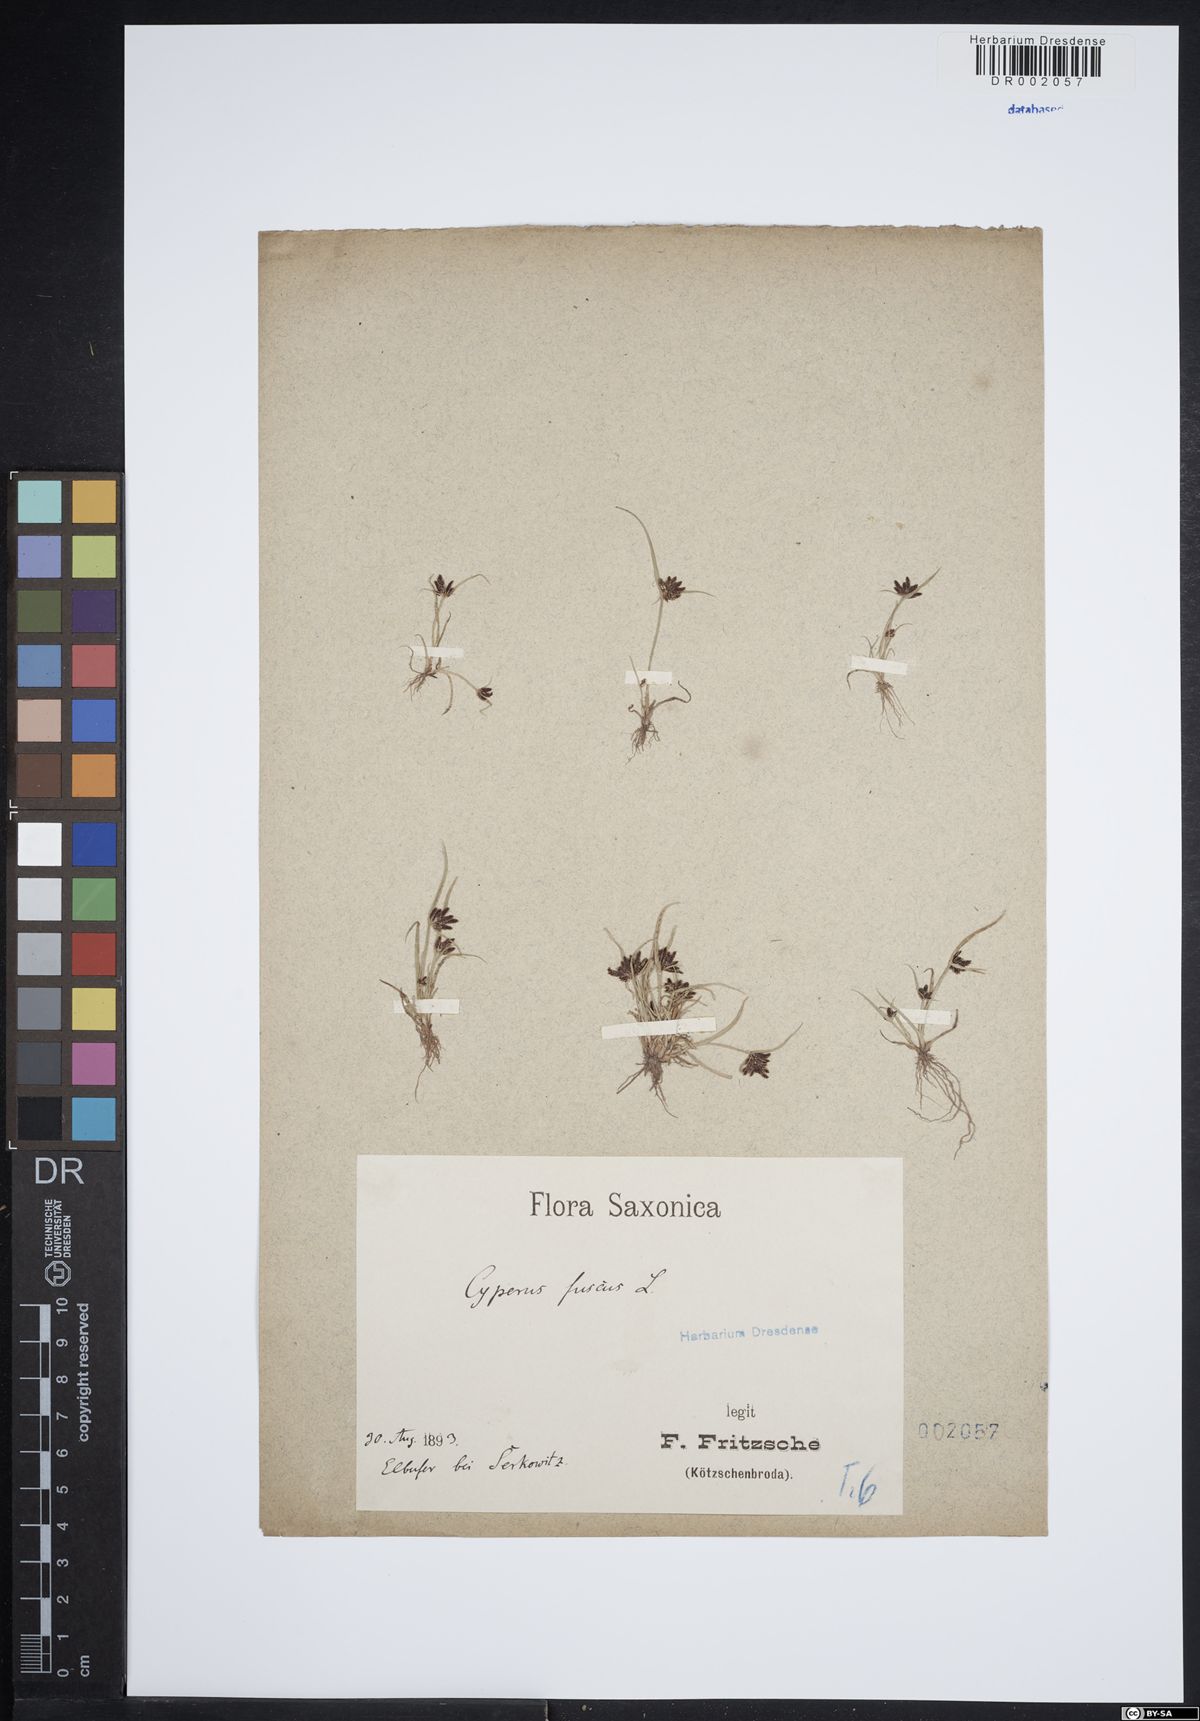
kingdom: Plantae
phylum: Tracheophyta
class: Liliopsida
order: Poales
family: Cyperaceae
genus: Cyperus
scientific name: Cyperus fuscus
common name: Brown galingale
